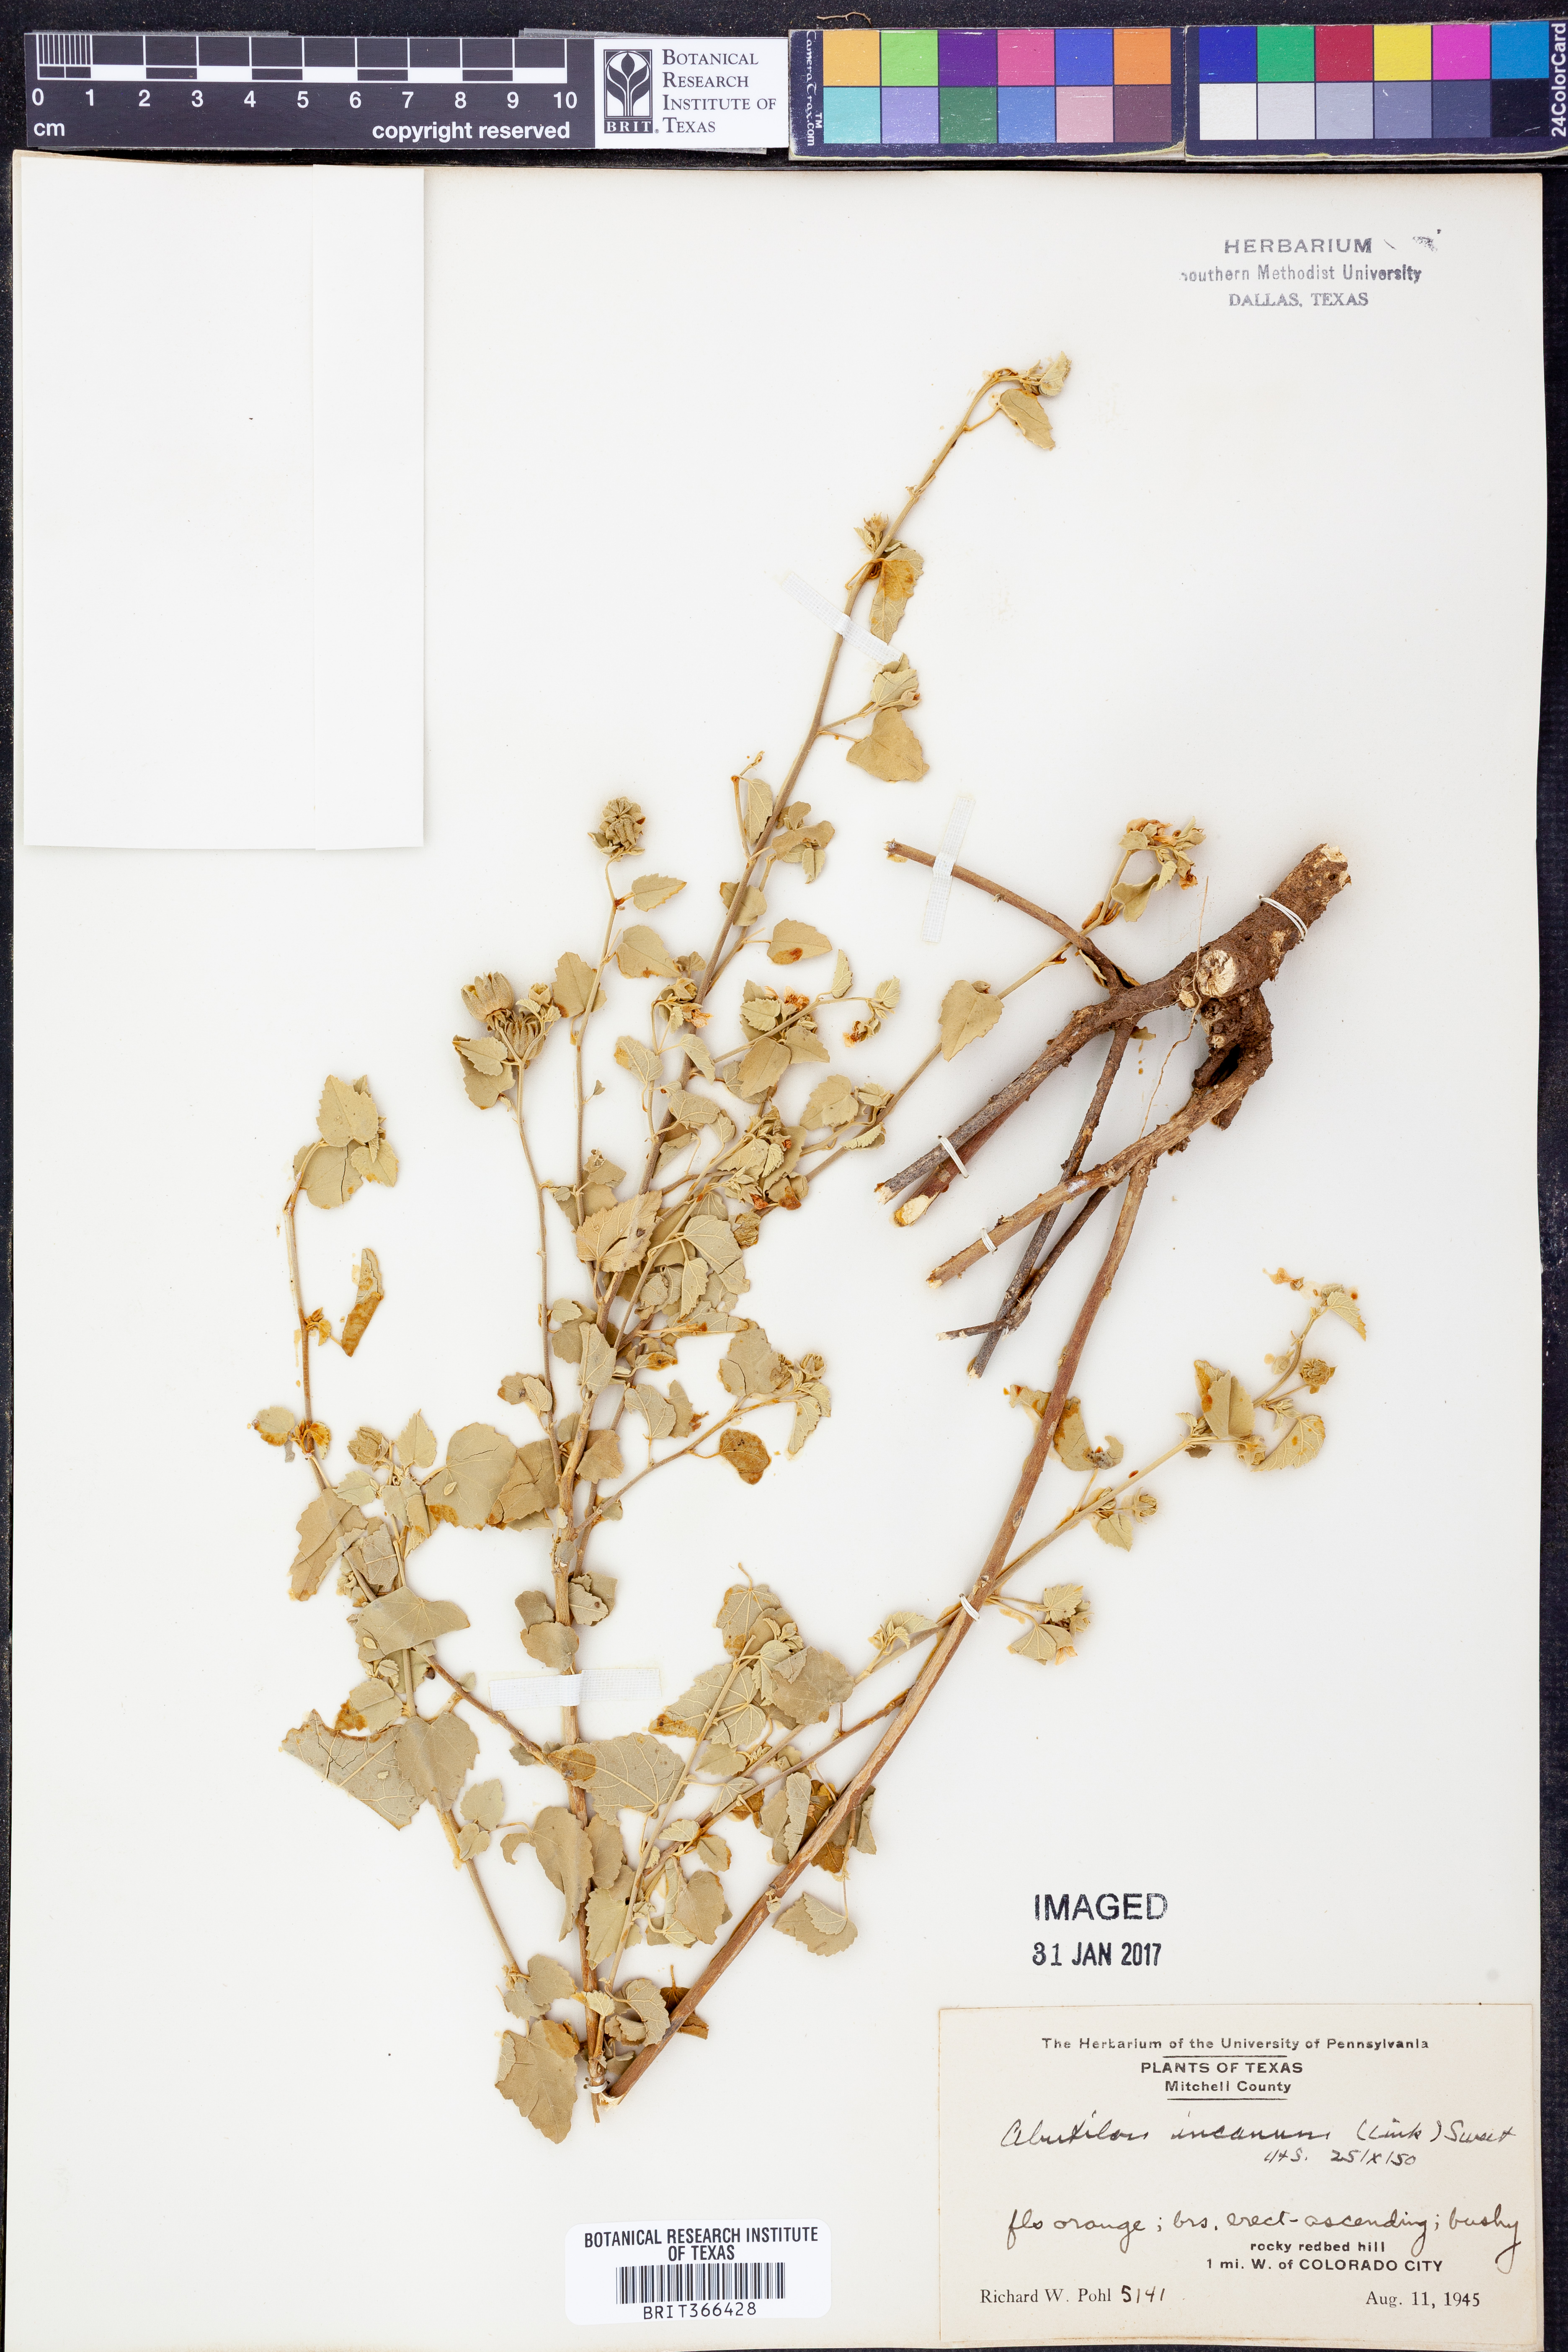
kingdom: Plantae
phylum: Tracheophyta
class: Magnoliopsida
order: Malvales
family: Malvaceae
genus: Abutilon
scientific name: Abutilon incanum
